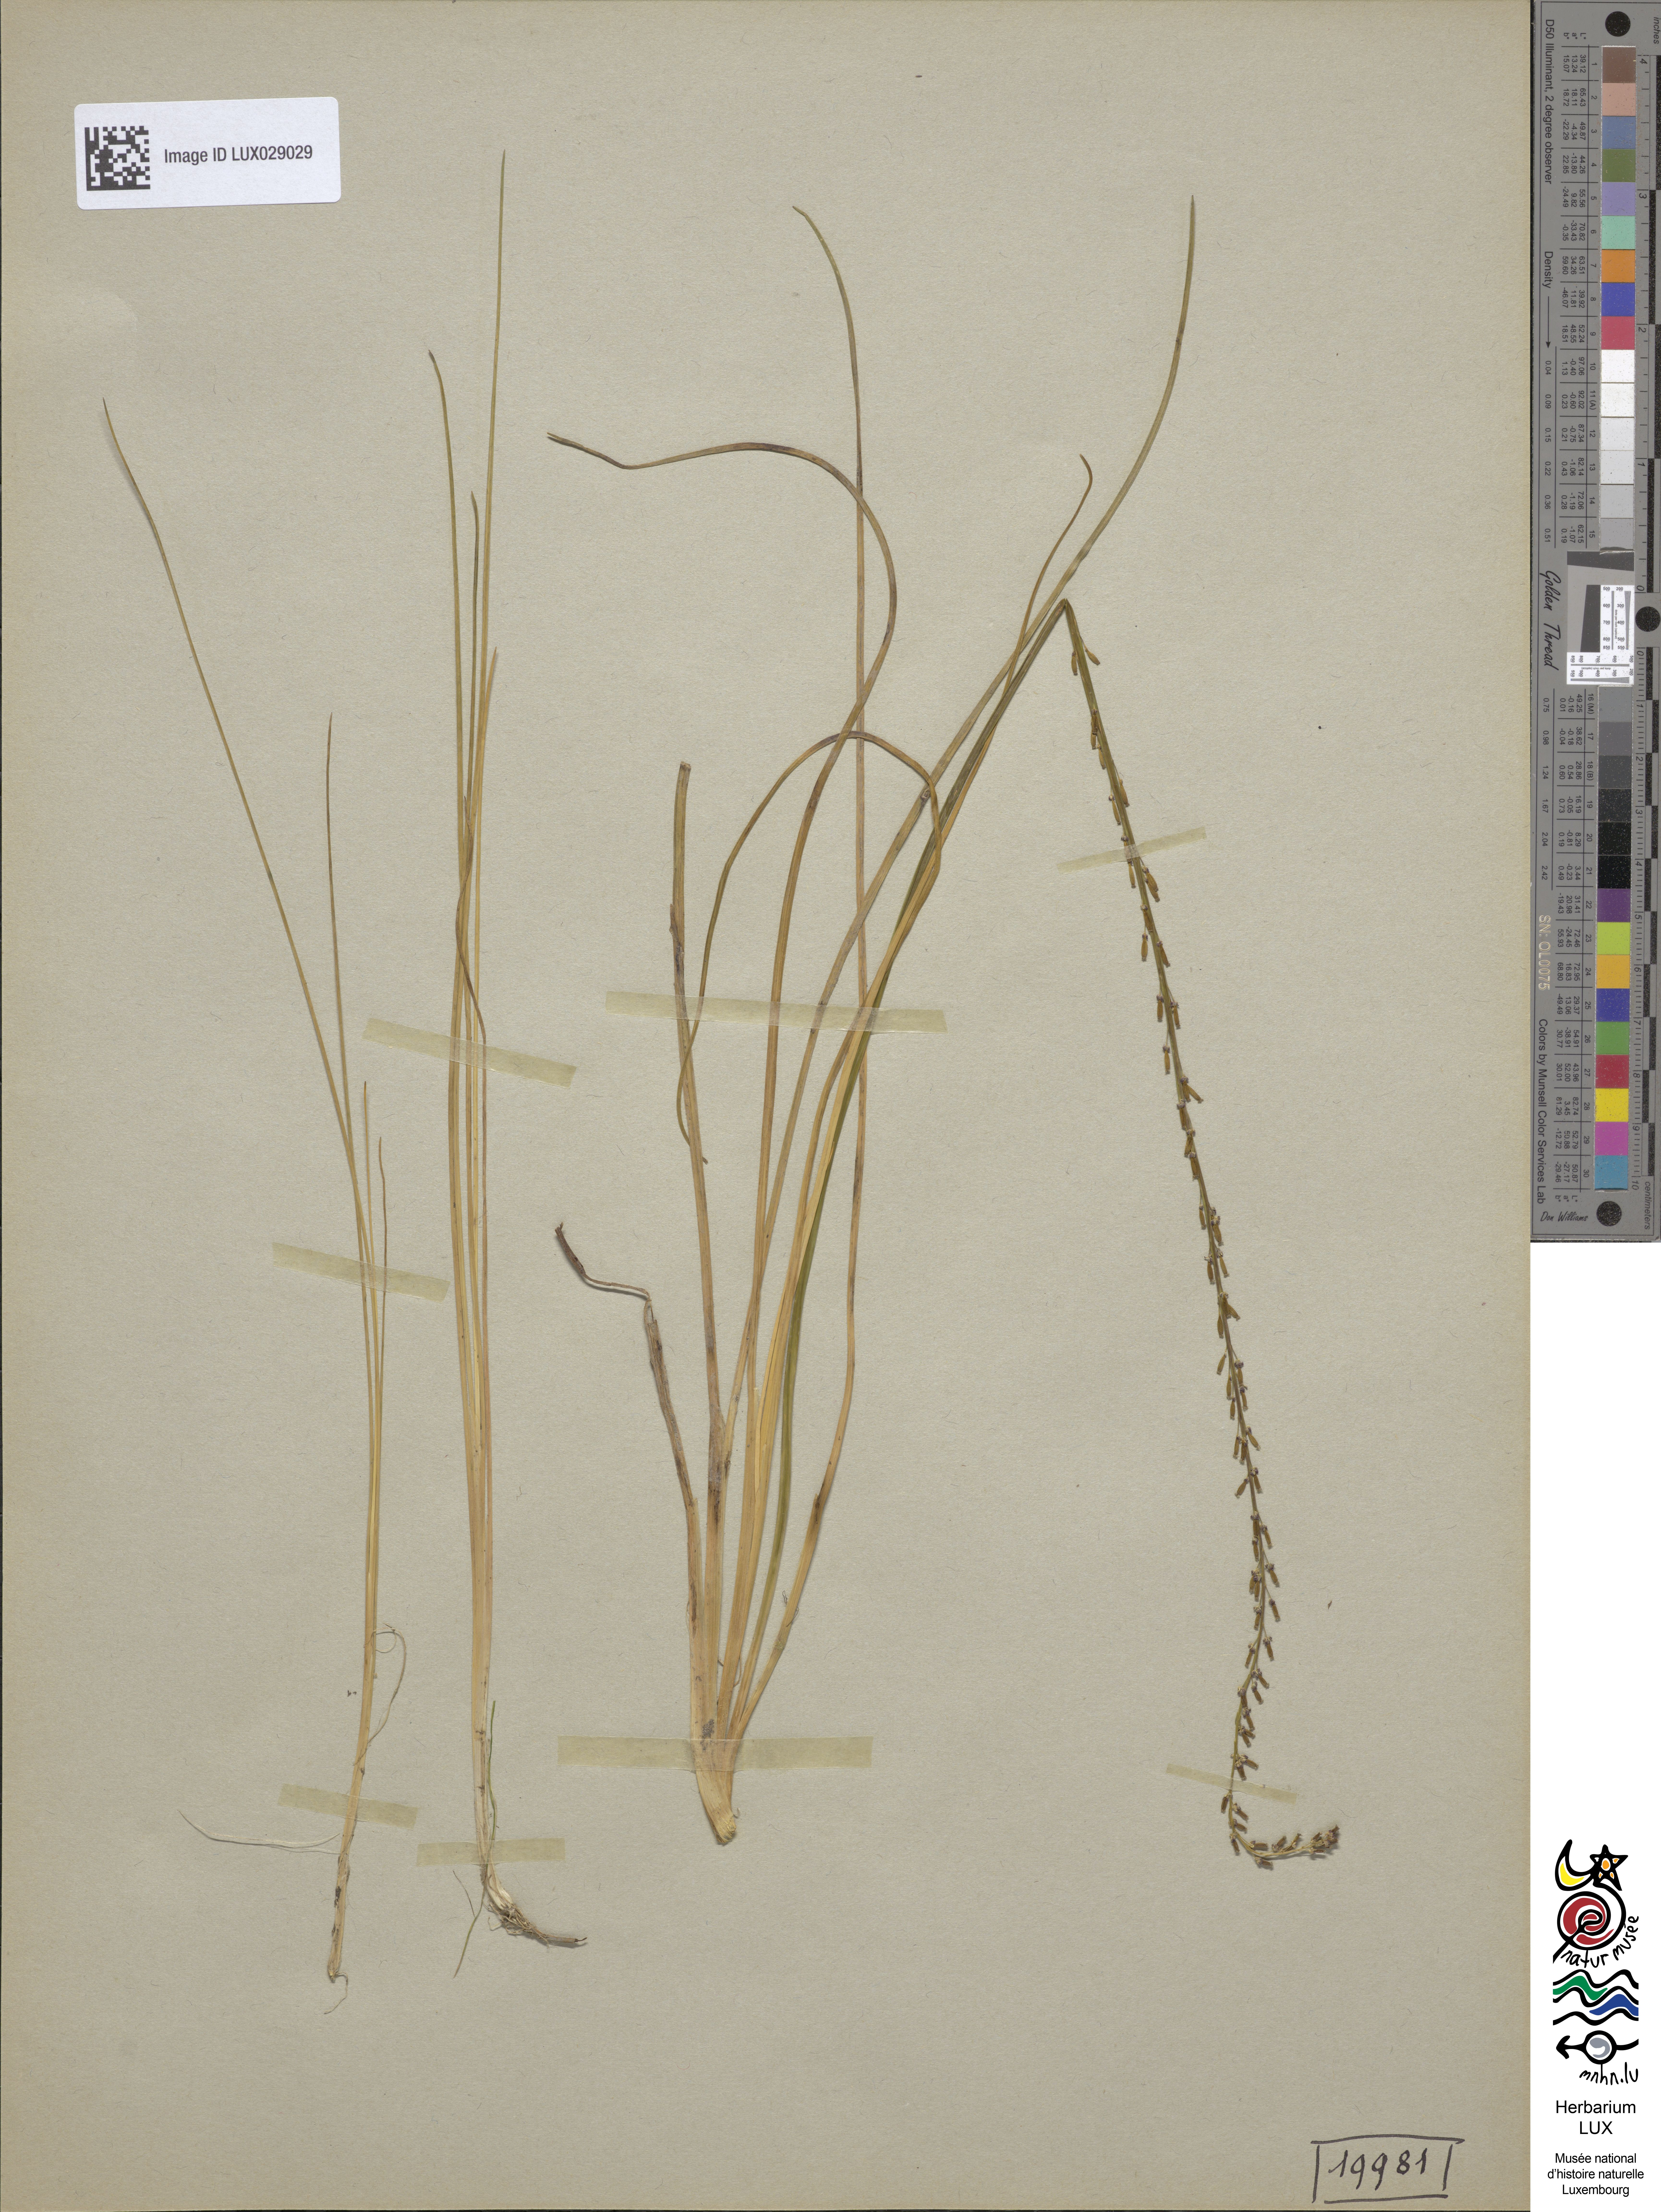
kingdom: Plantae
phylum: Tracheophyta
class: Liliopsida
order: Alismatales
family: Juncaginaceae
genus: Triglochin
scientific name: Triglochin palustris
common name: Marsh arrowgrass
